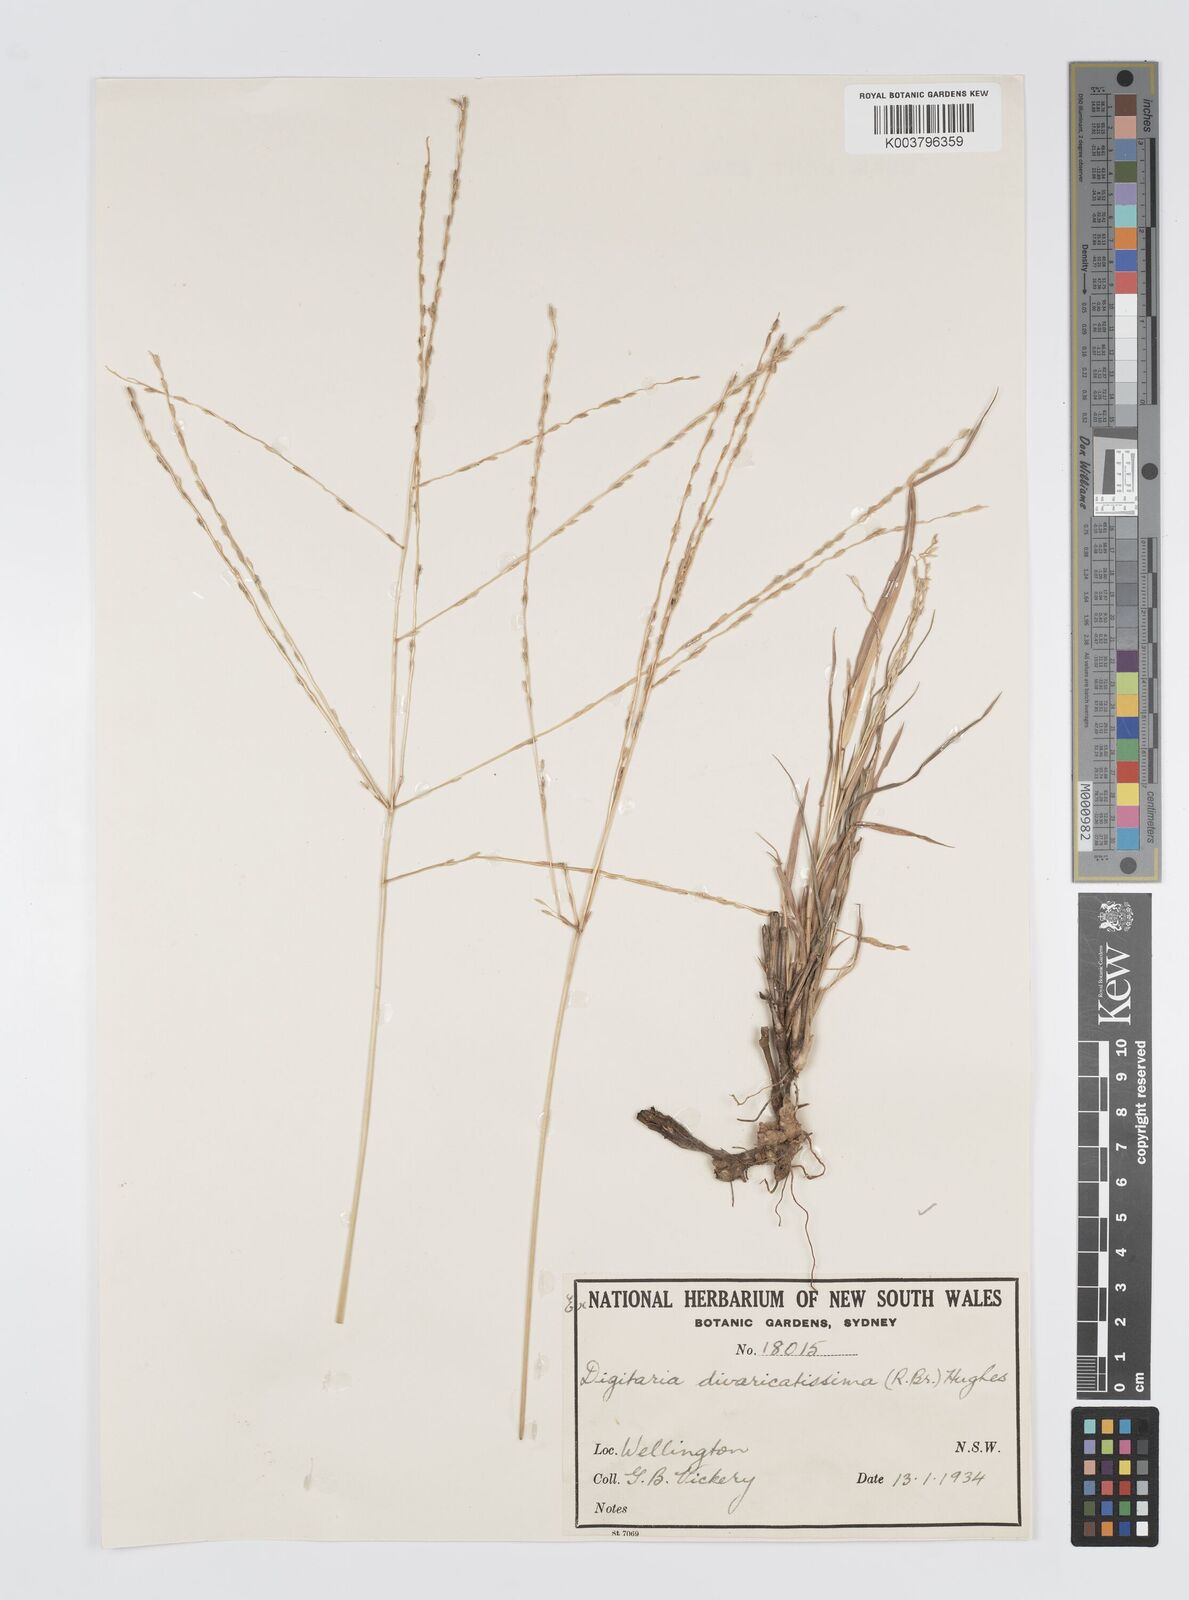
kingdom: Plantae
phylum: Tracheophyta
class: Liliopsida
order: Poales
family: Poaceae
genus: Digitaria
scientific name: Digitaria divaricatissima
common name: Crabgrass
